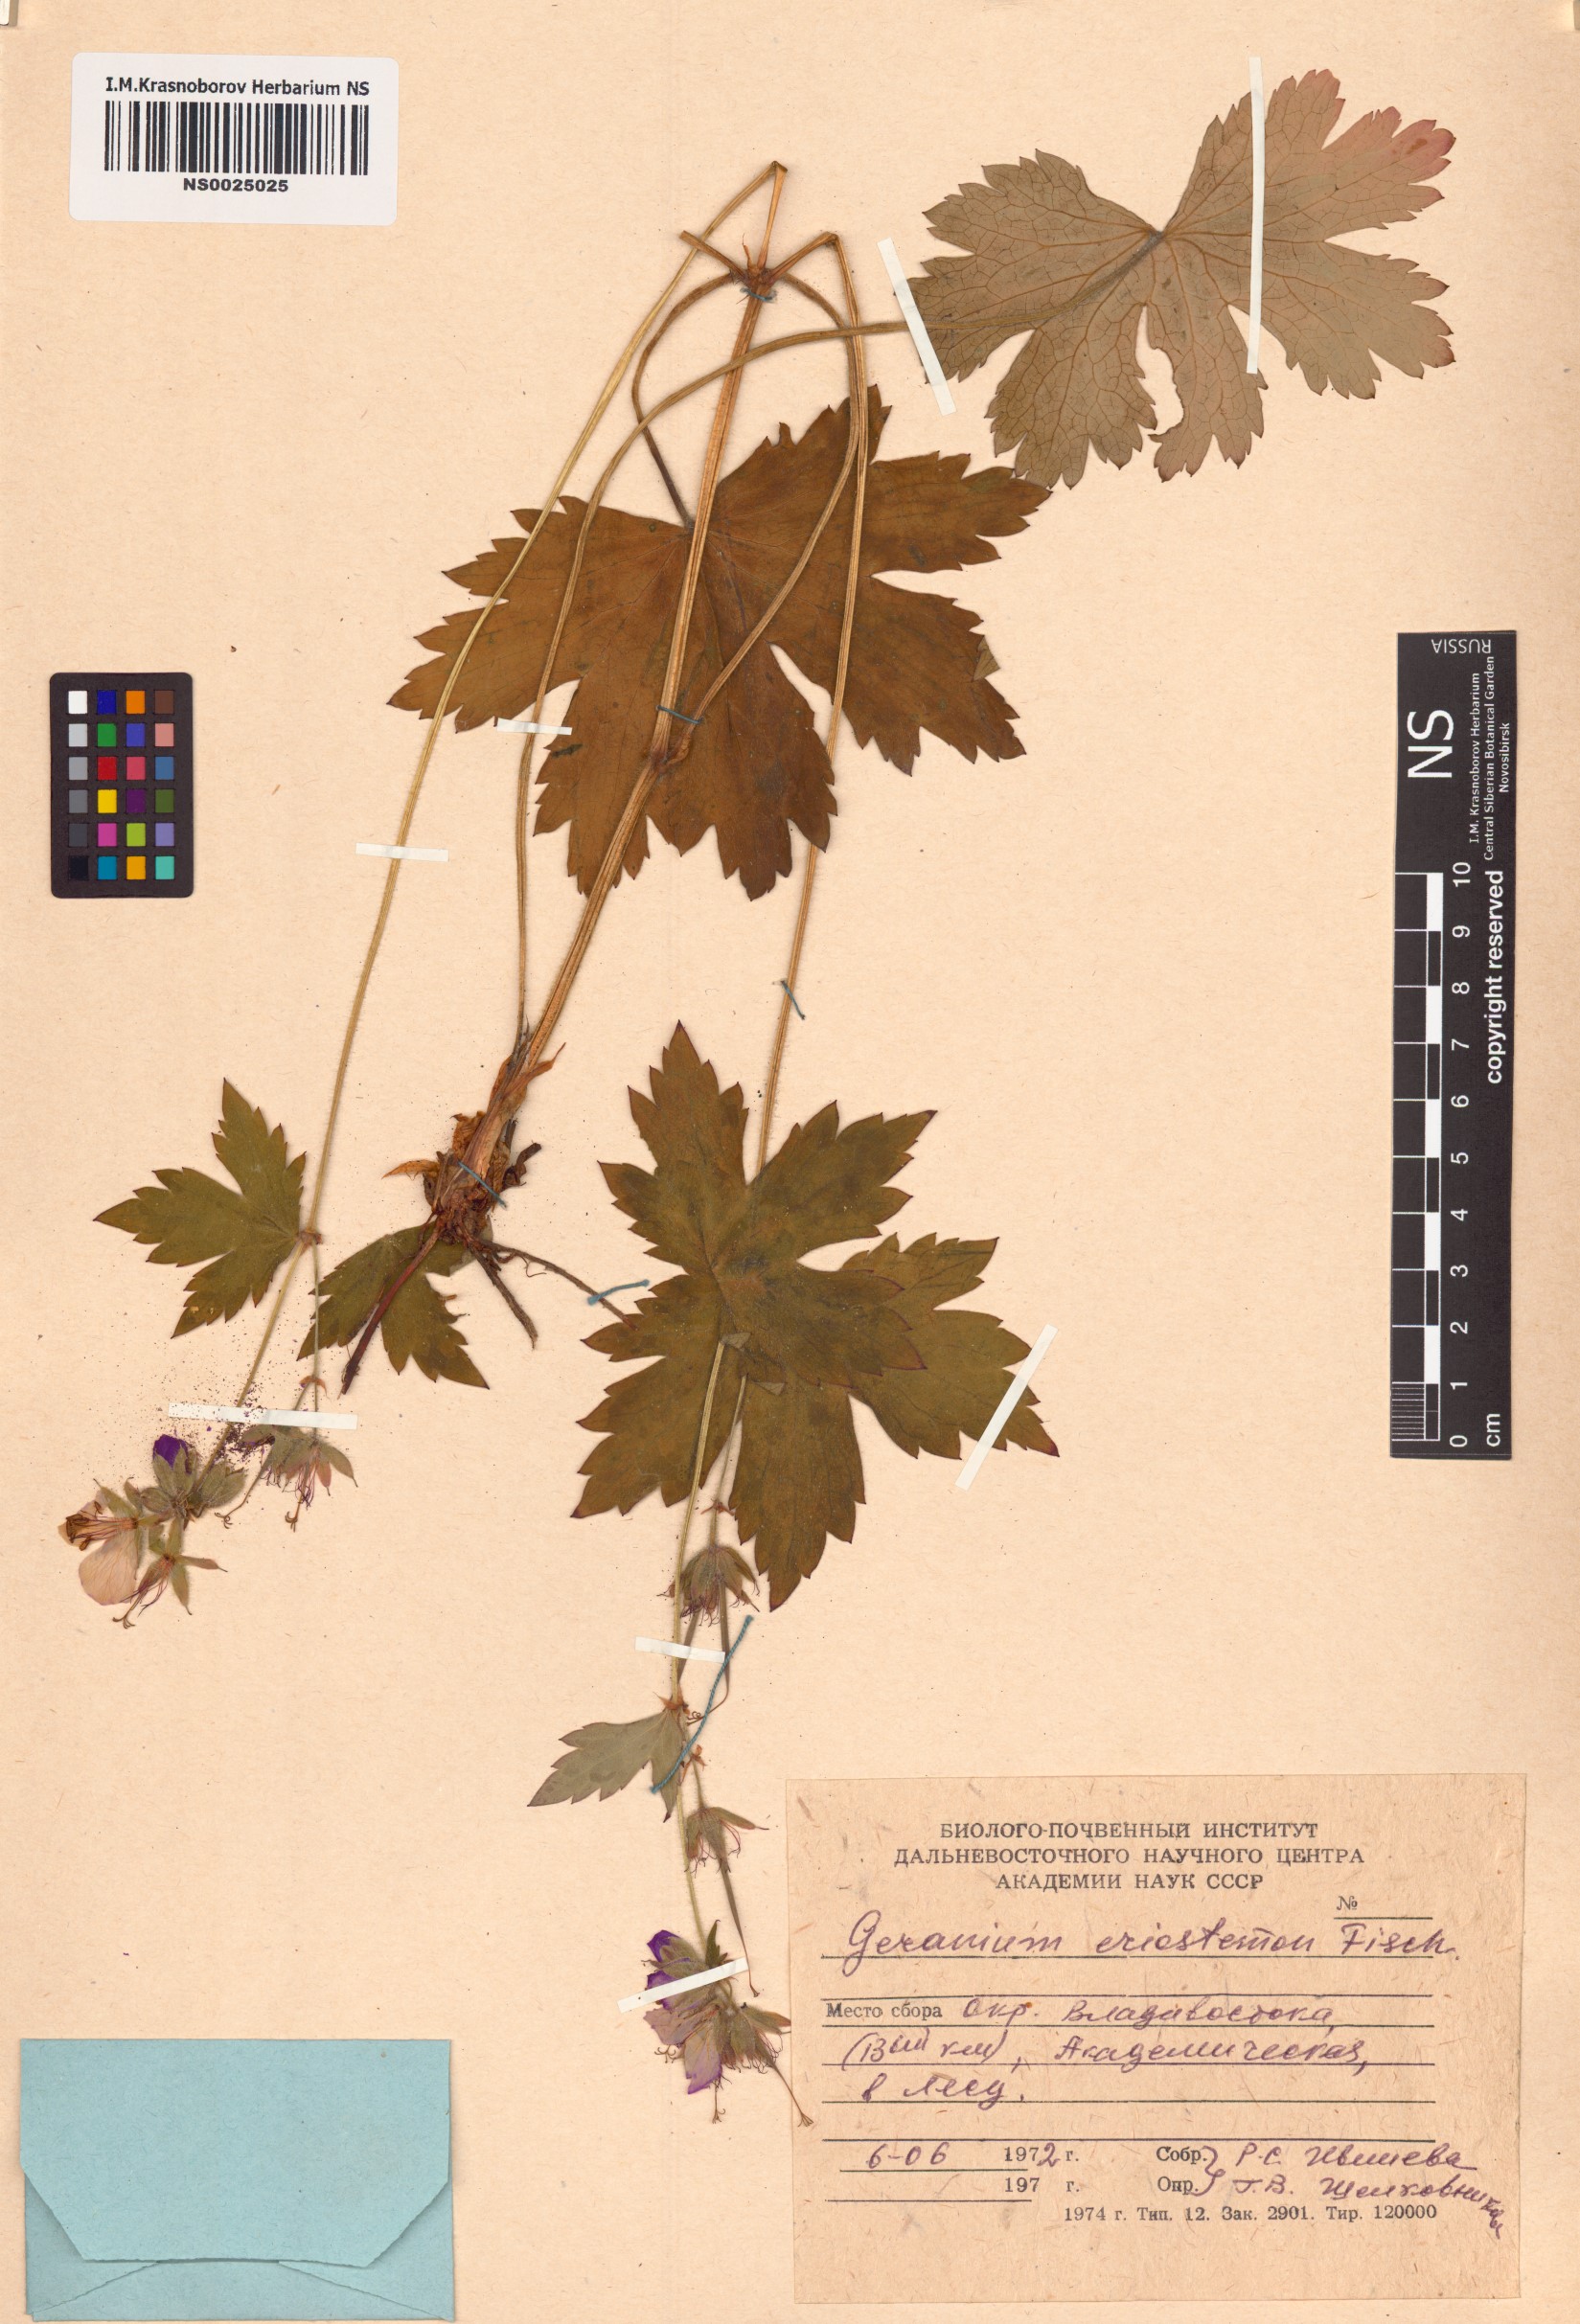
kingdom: Plantae
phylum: Tracheophyta
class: Magnoliopsida
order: Geraniales
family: Geraniaceae
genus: Geranium
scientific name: Geranium platyanthum
